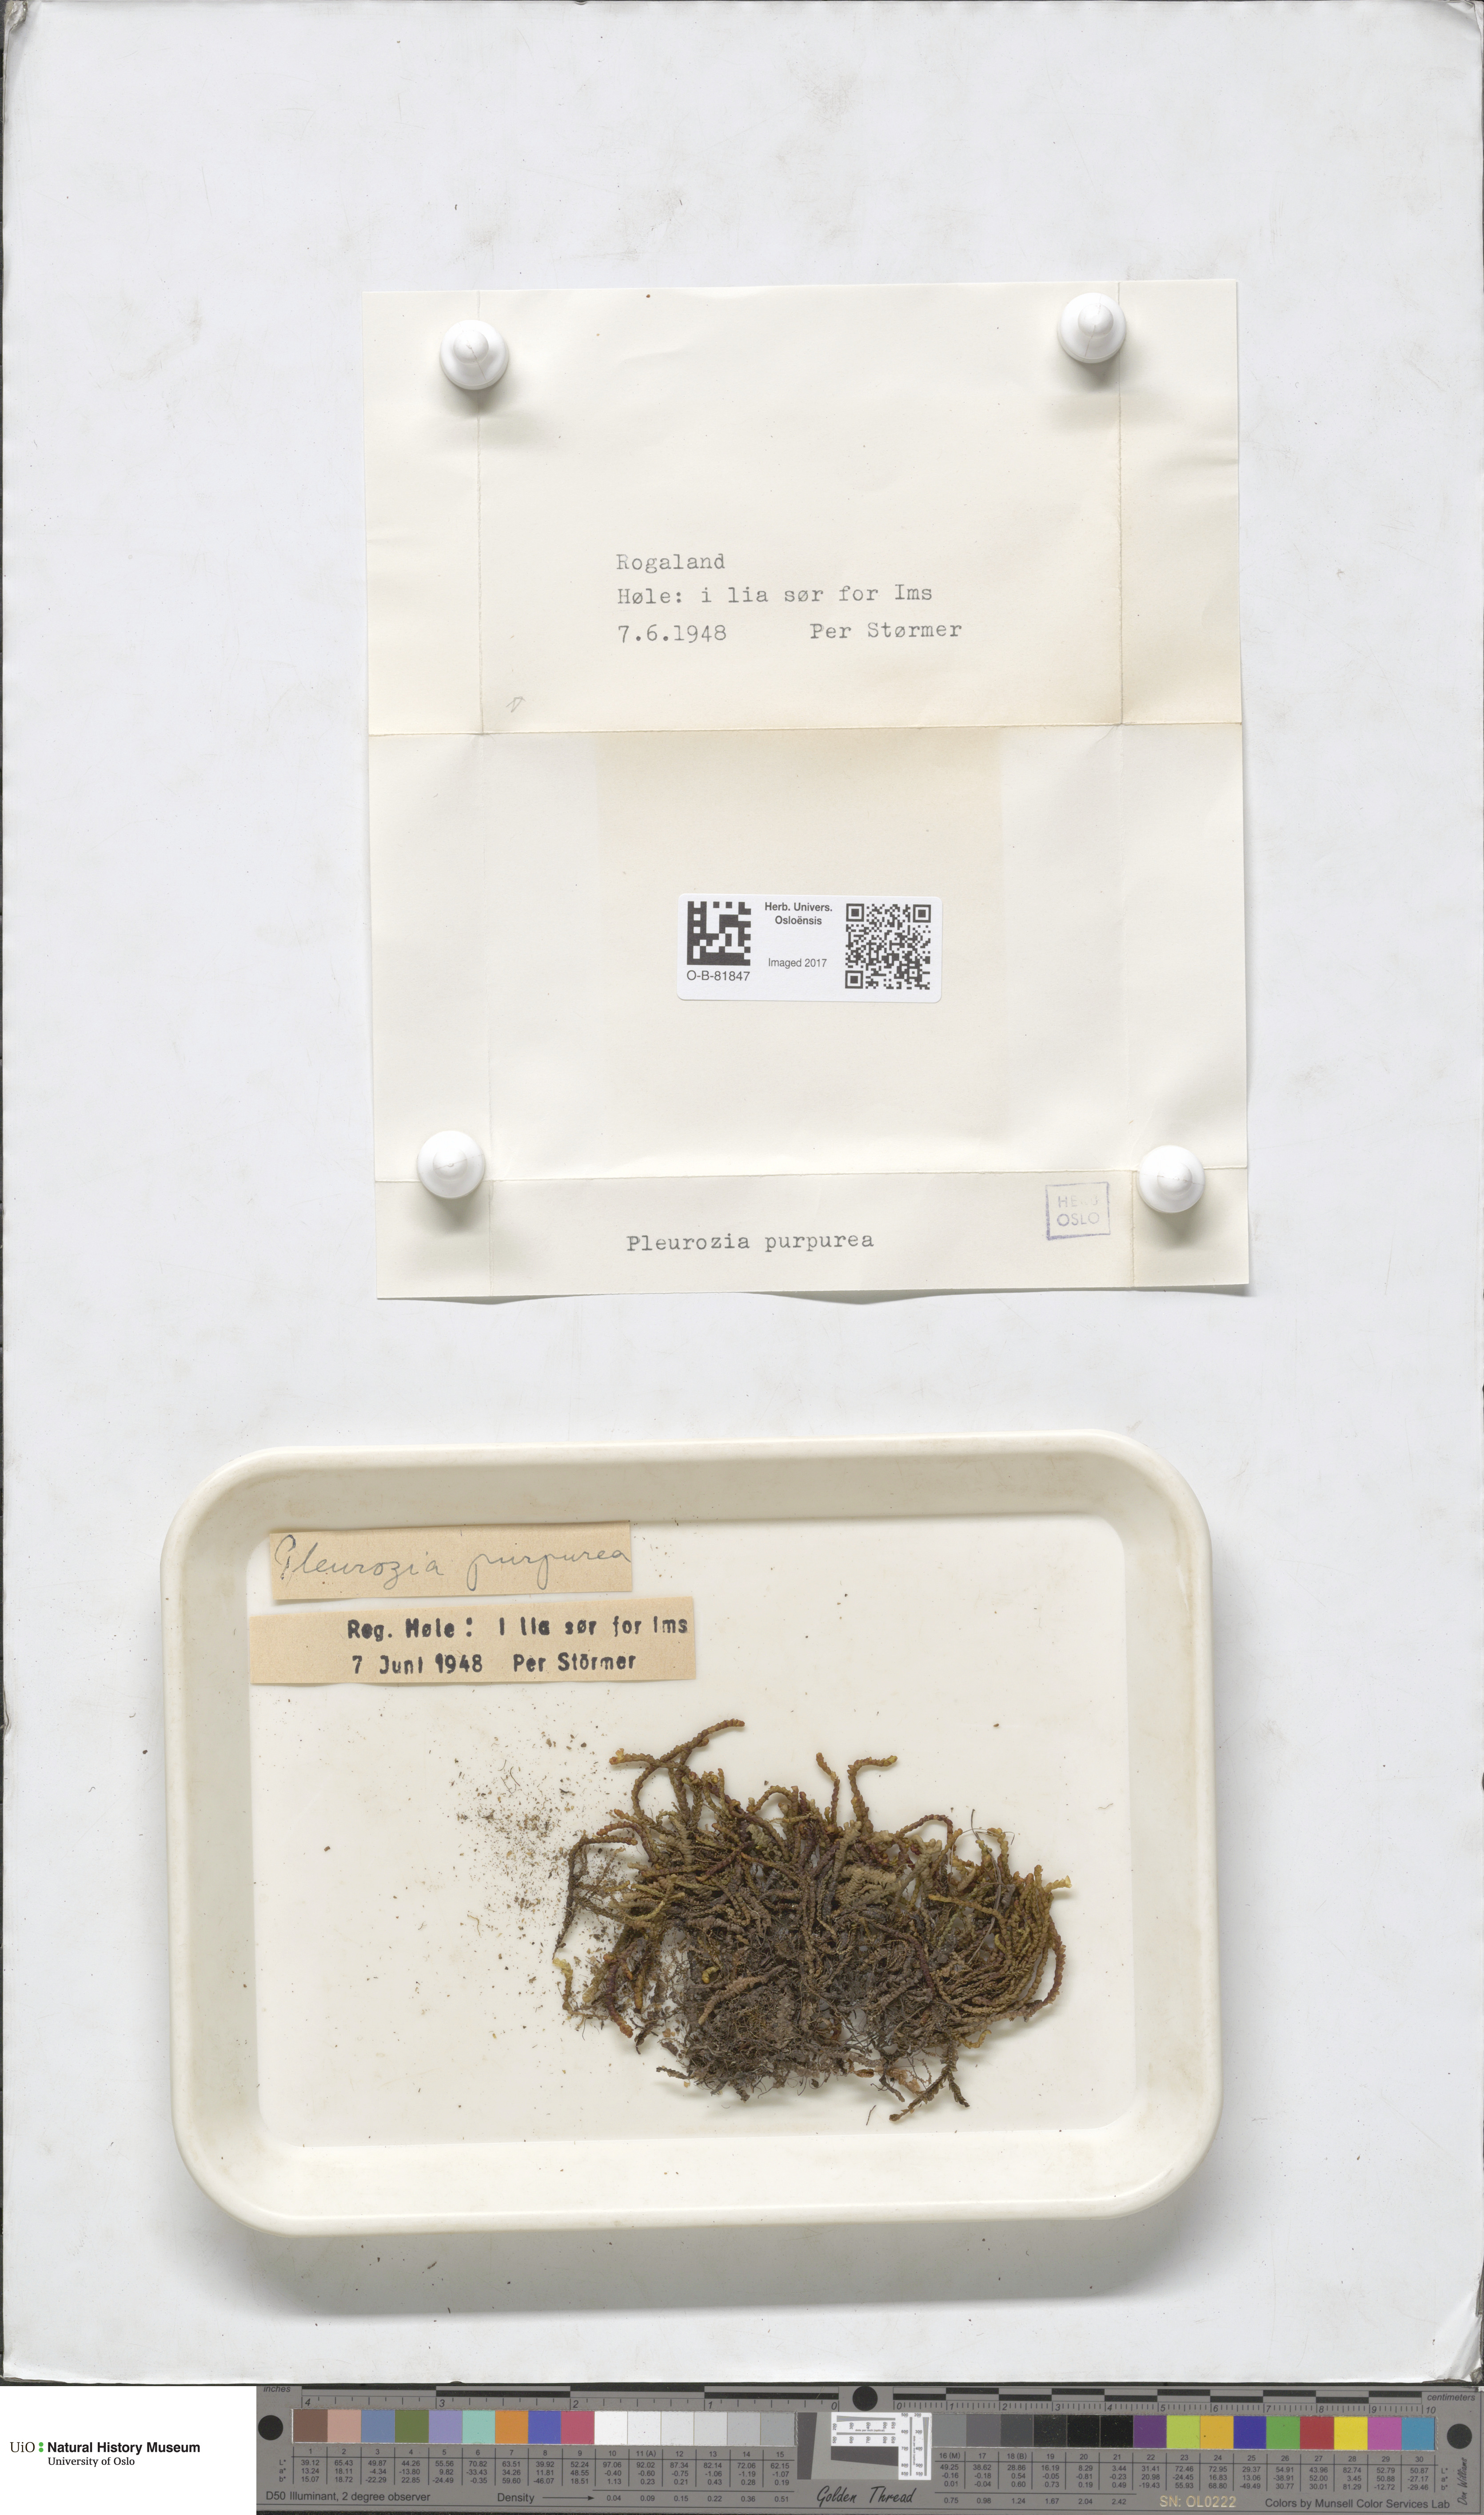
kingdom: Plantae
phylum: Marchantiophyta
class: Jungermanniopsida
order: Pleuroziales
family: Pleuroziaceae
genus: Pleurozia
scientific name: Pleurozia purpurea
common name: Purple spoonwort
